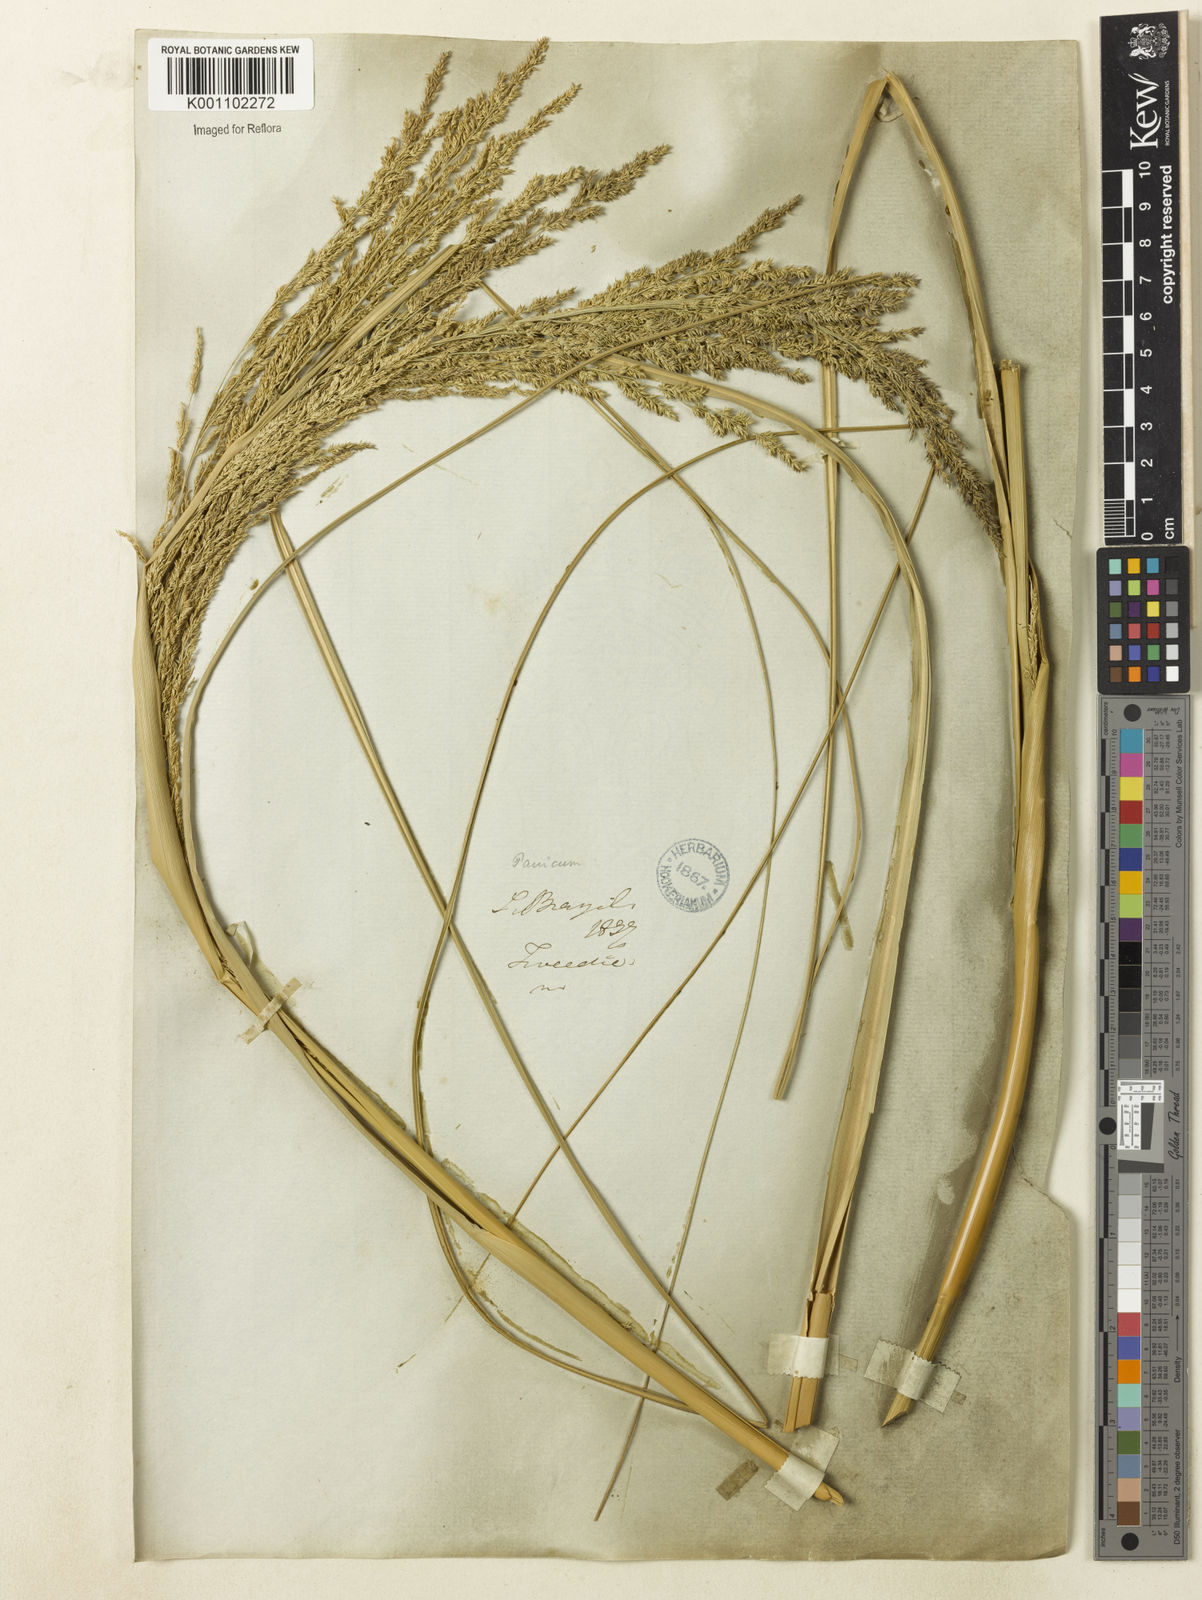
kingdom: Plantae
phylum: Tracheophyta
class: Liliopsida
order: Poales
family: Poaceae
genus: Coleataenia
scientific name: Coleataenia prionitis
